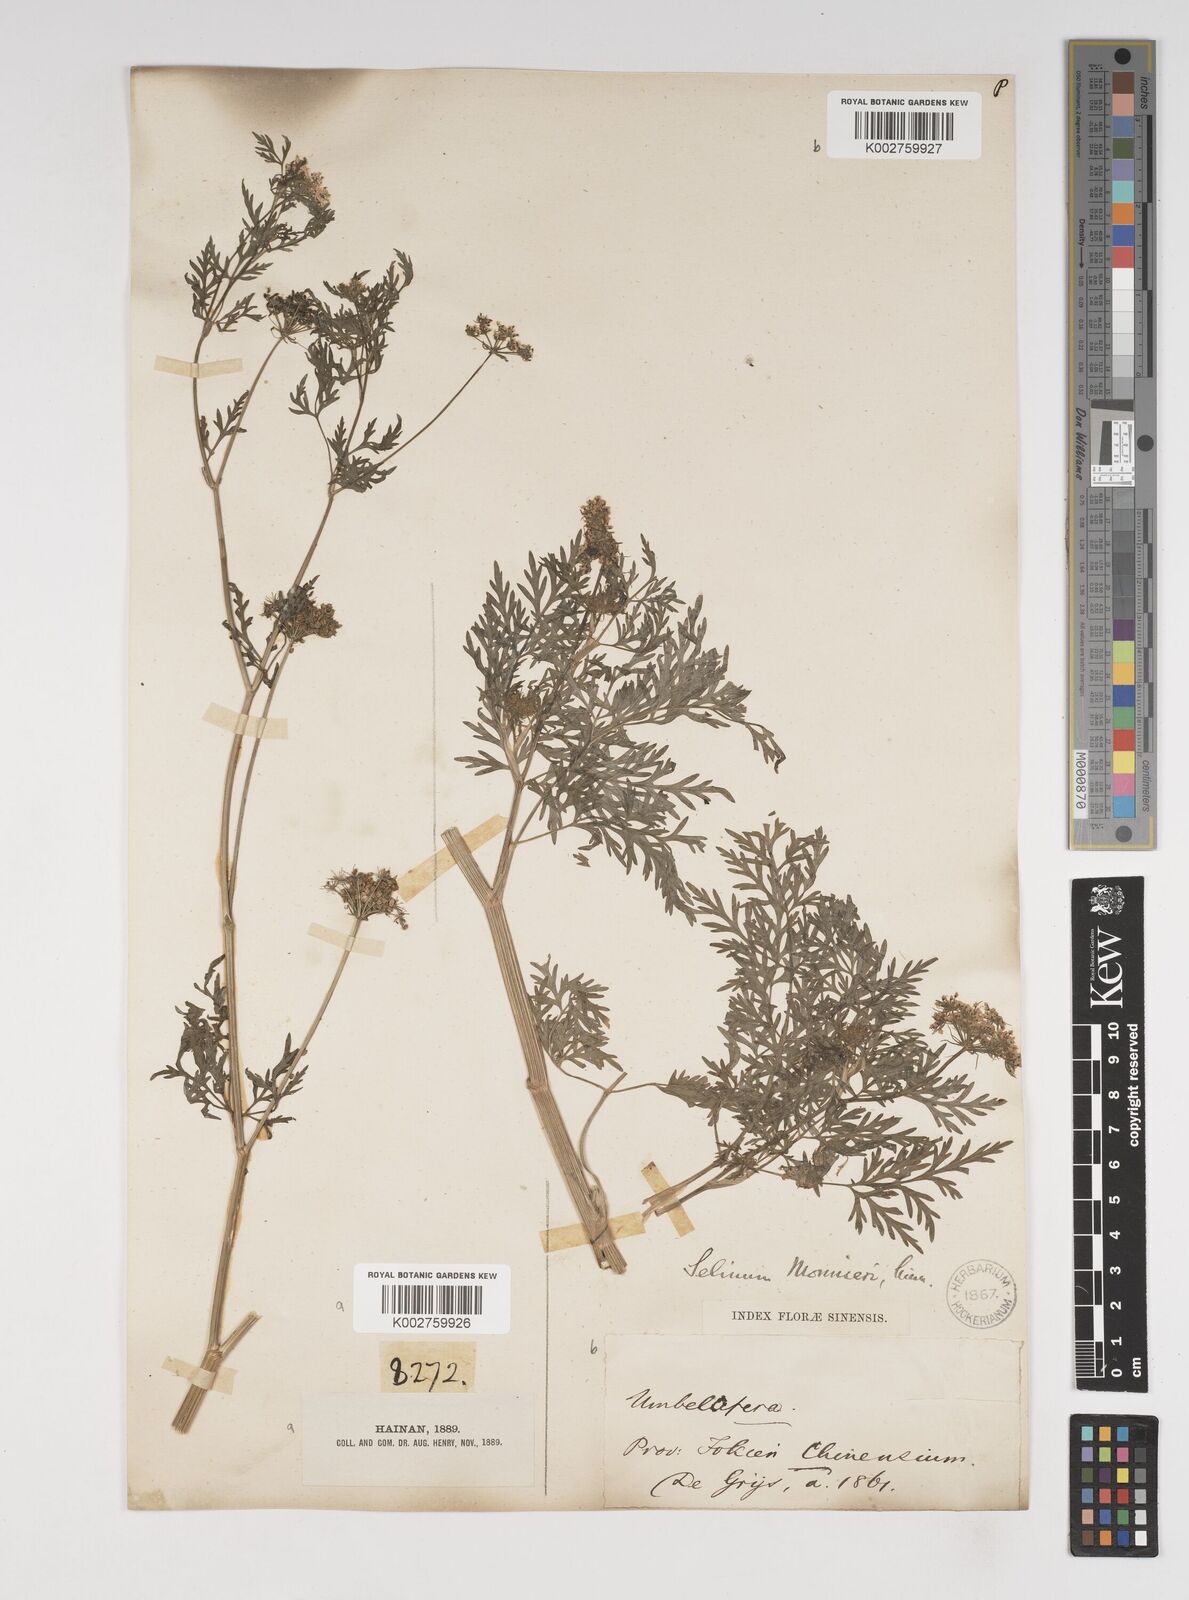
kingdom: Plantae
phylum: Tracheophyta
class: Magnoliopsida
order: Apiales
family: Apiaceae
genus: Cnidium
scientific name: Cnidium monnieri
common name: Monnier's snowparsley
